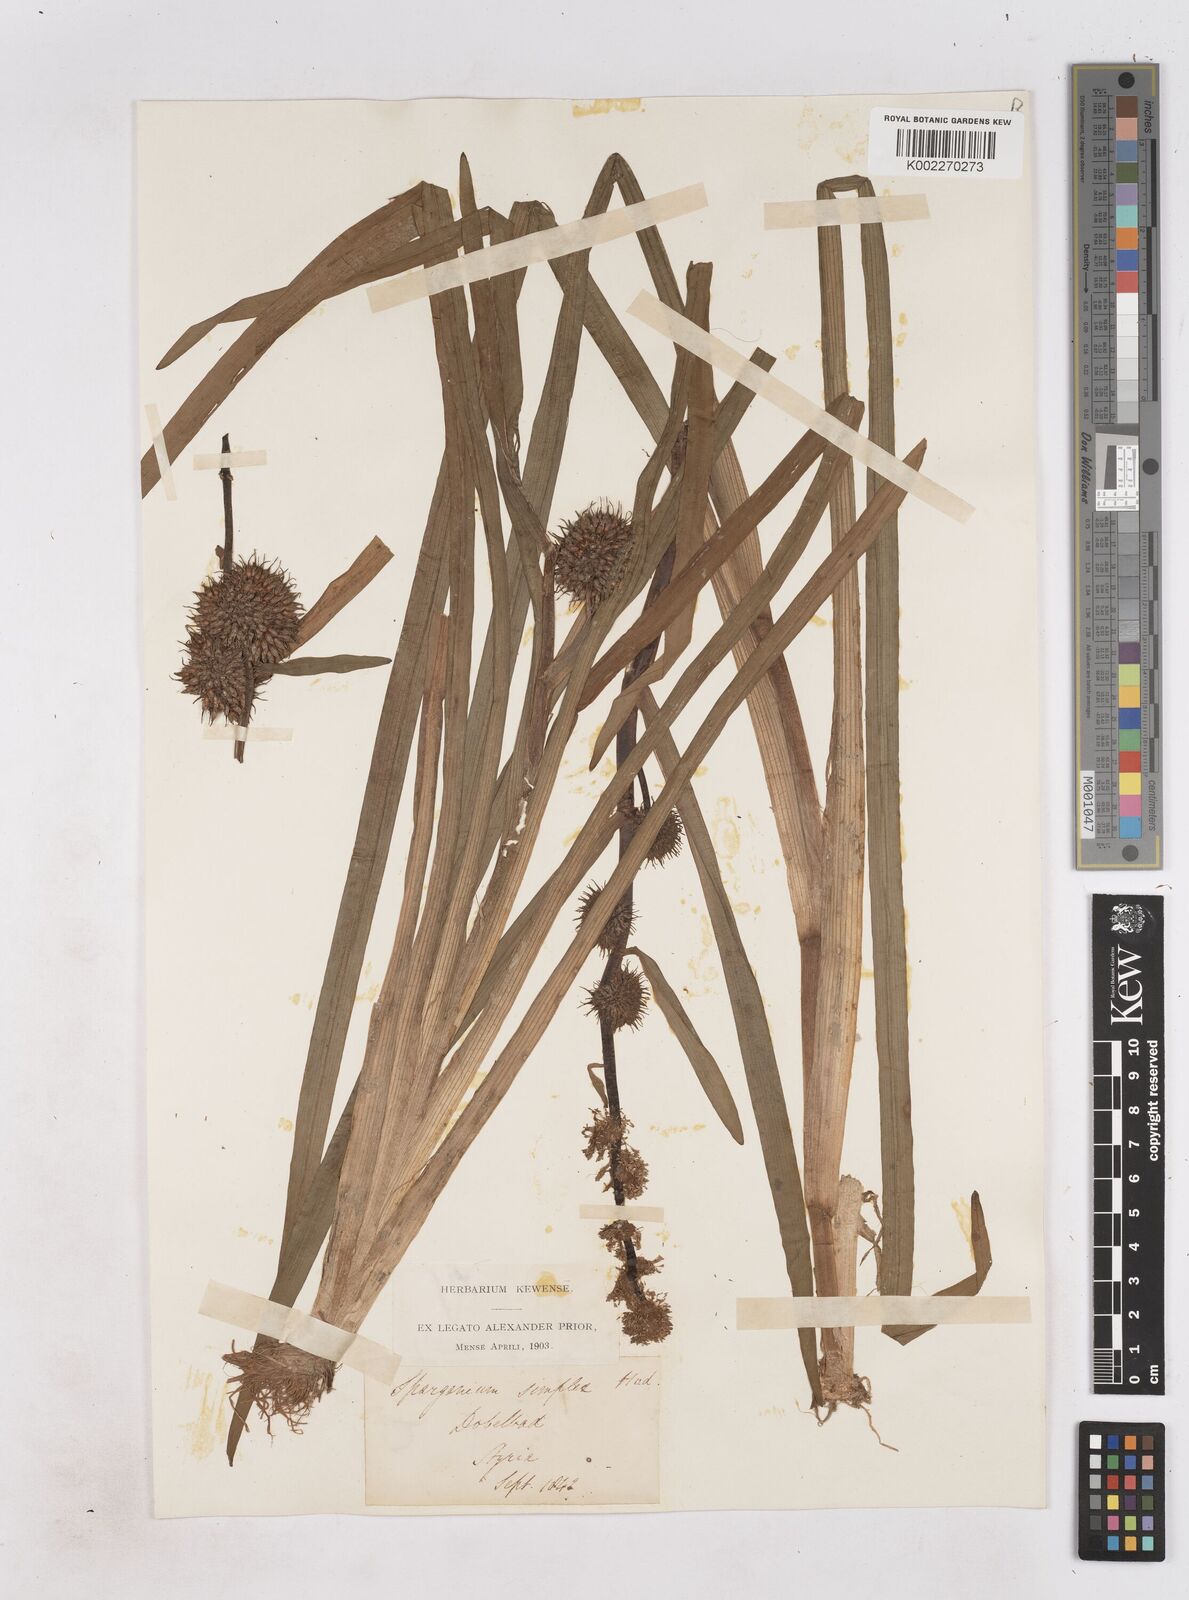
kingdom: Plantae
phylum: Tracheophyta
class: Liliopsida
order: Poales
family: Typhaceae
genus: Sparganium
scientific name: Sparganium emersum
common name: Unbranched bur-reed
